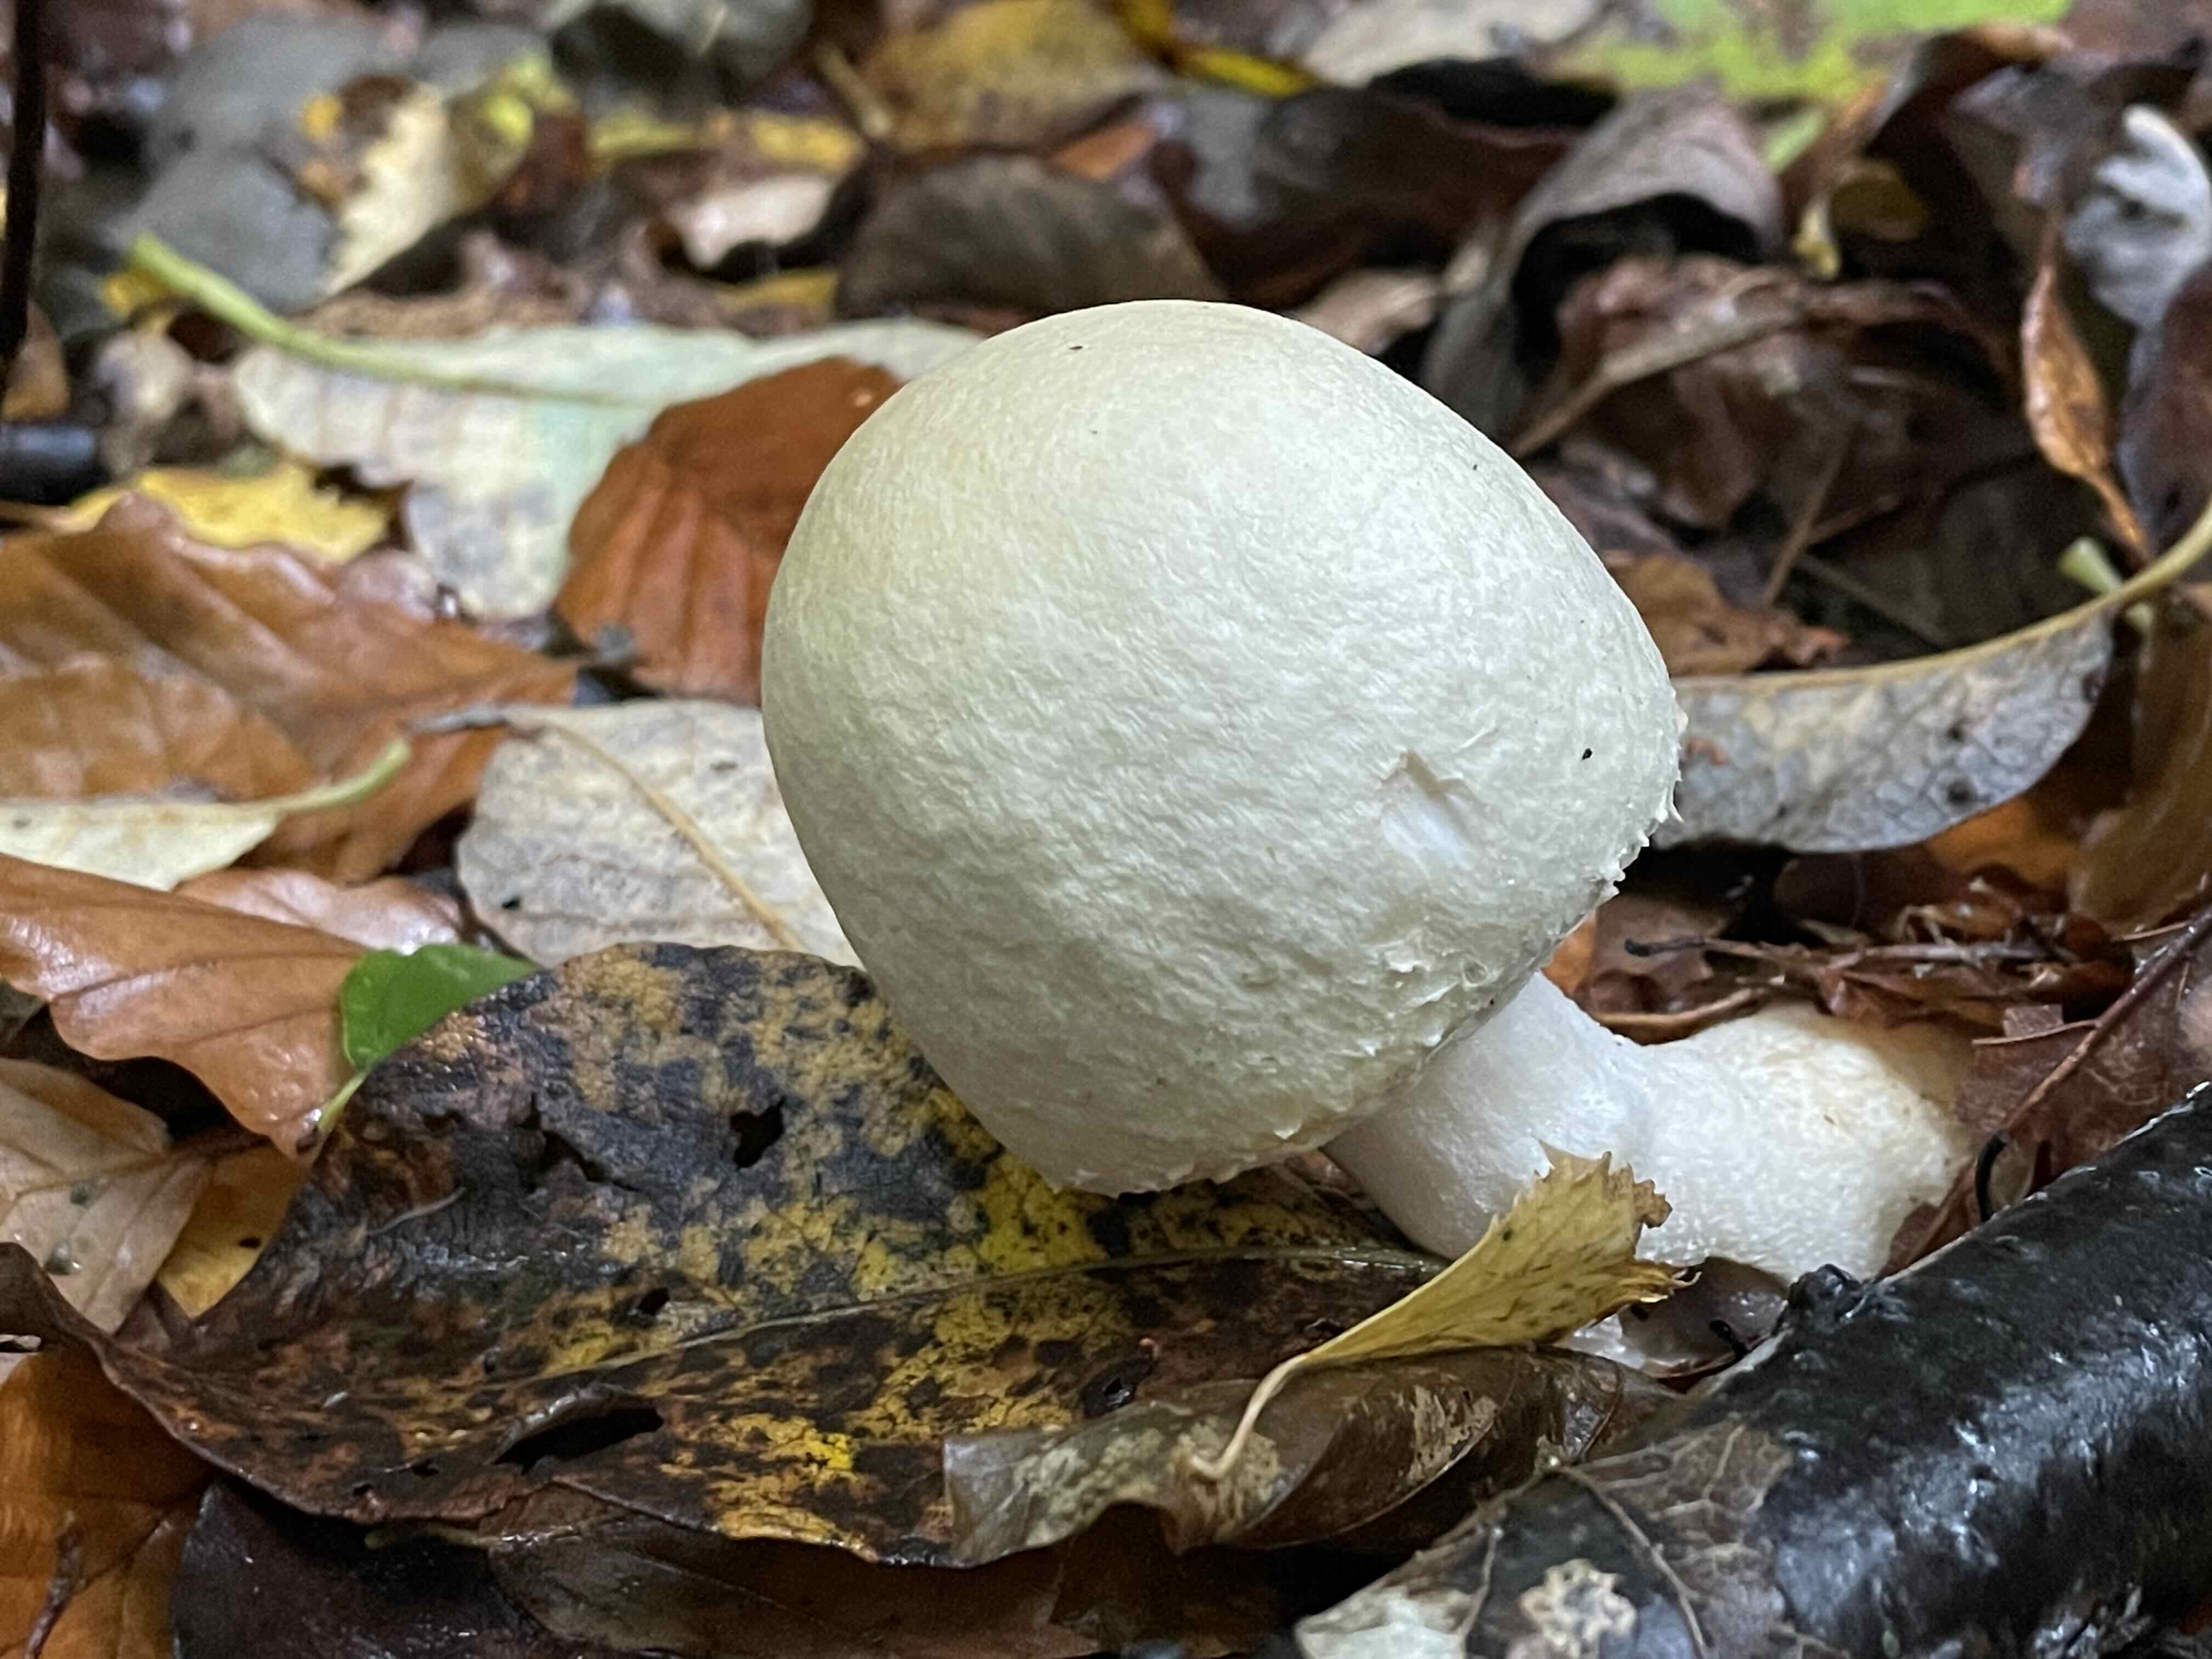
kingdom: Fungi
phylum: Basidiomycota
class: Agaricomycetes
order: Agaricales
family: Agaricaceae
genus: Agaricus
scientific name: Agaricus
